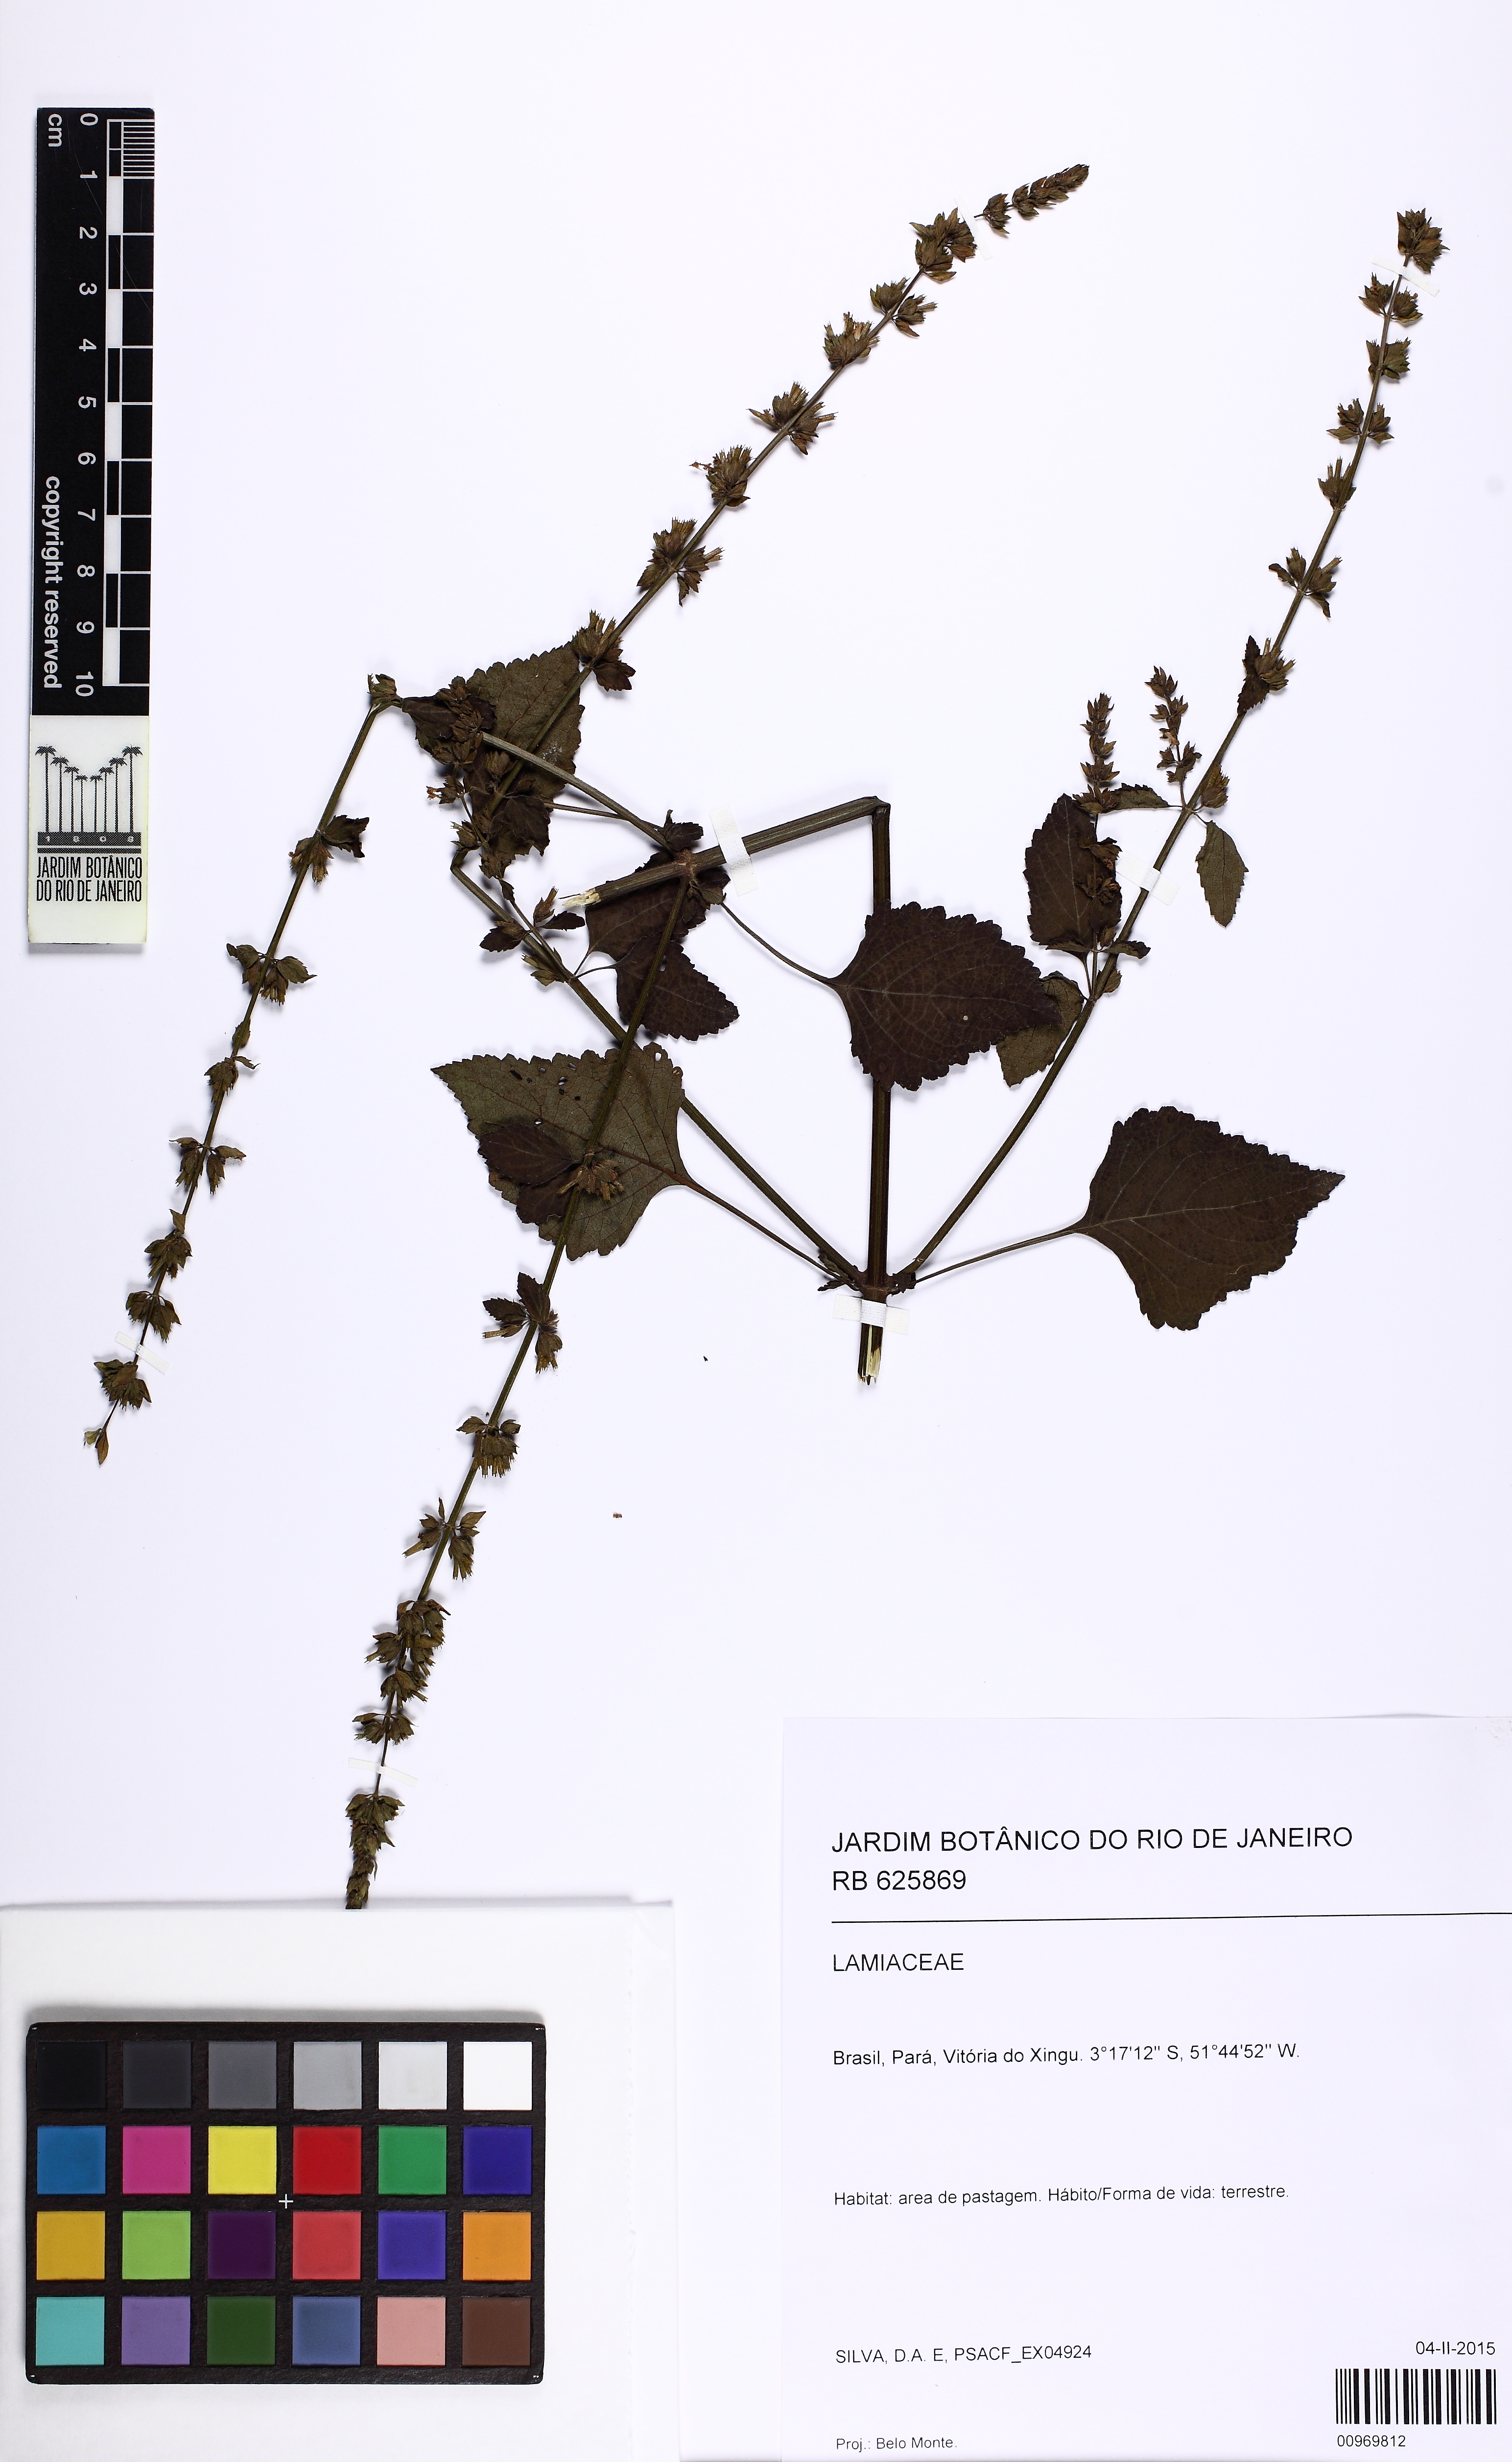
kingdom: Plantae
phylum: Tracheophyta
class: Magnoliopsida
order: Lamiales
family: Lamiaceae
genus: Cantinoa
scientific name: Cantinoa
